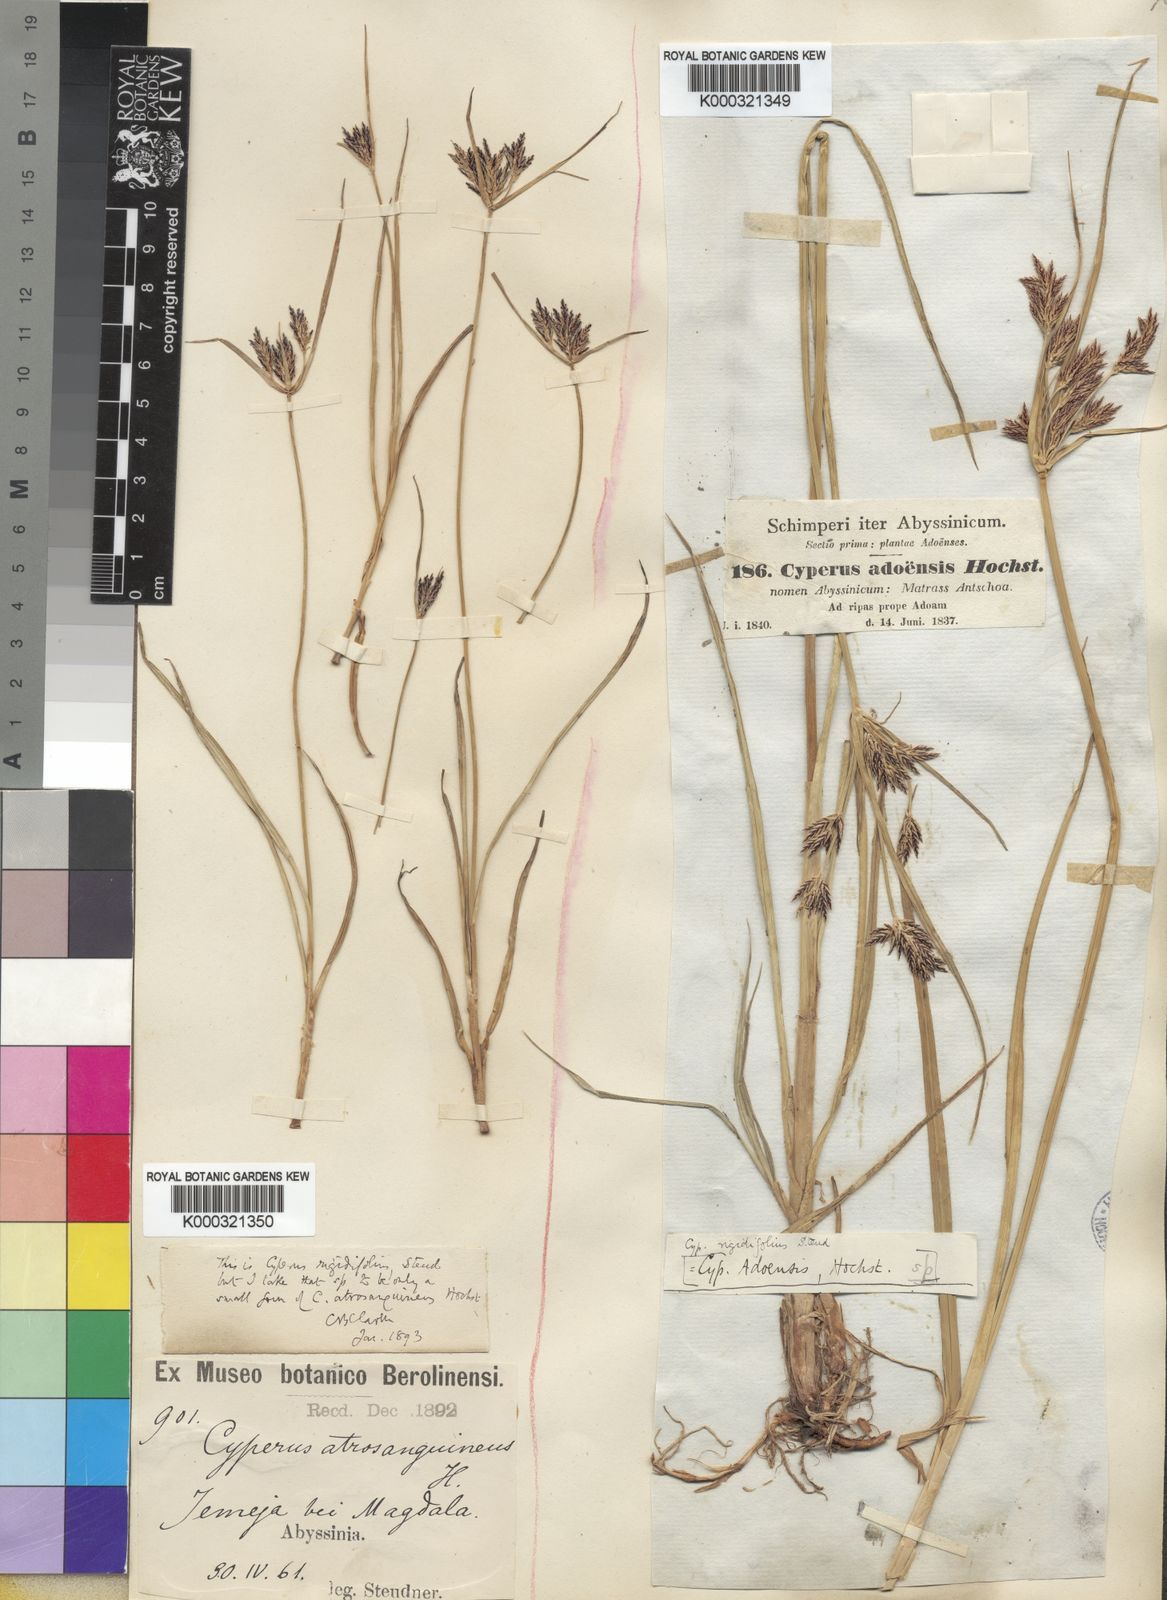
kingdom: Plantae
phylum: Tracheophyta
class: Liliopsida
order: Poales
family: Cyperaceae
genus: Cyperus
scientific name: Cyperus rigidifolius
